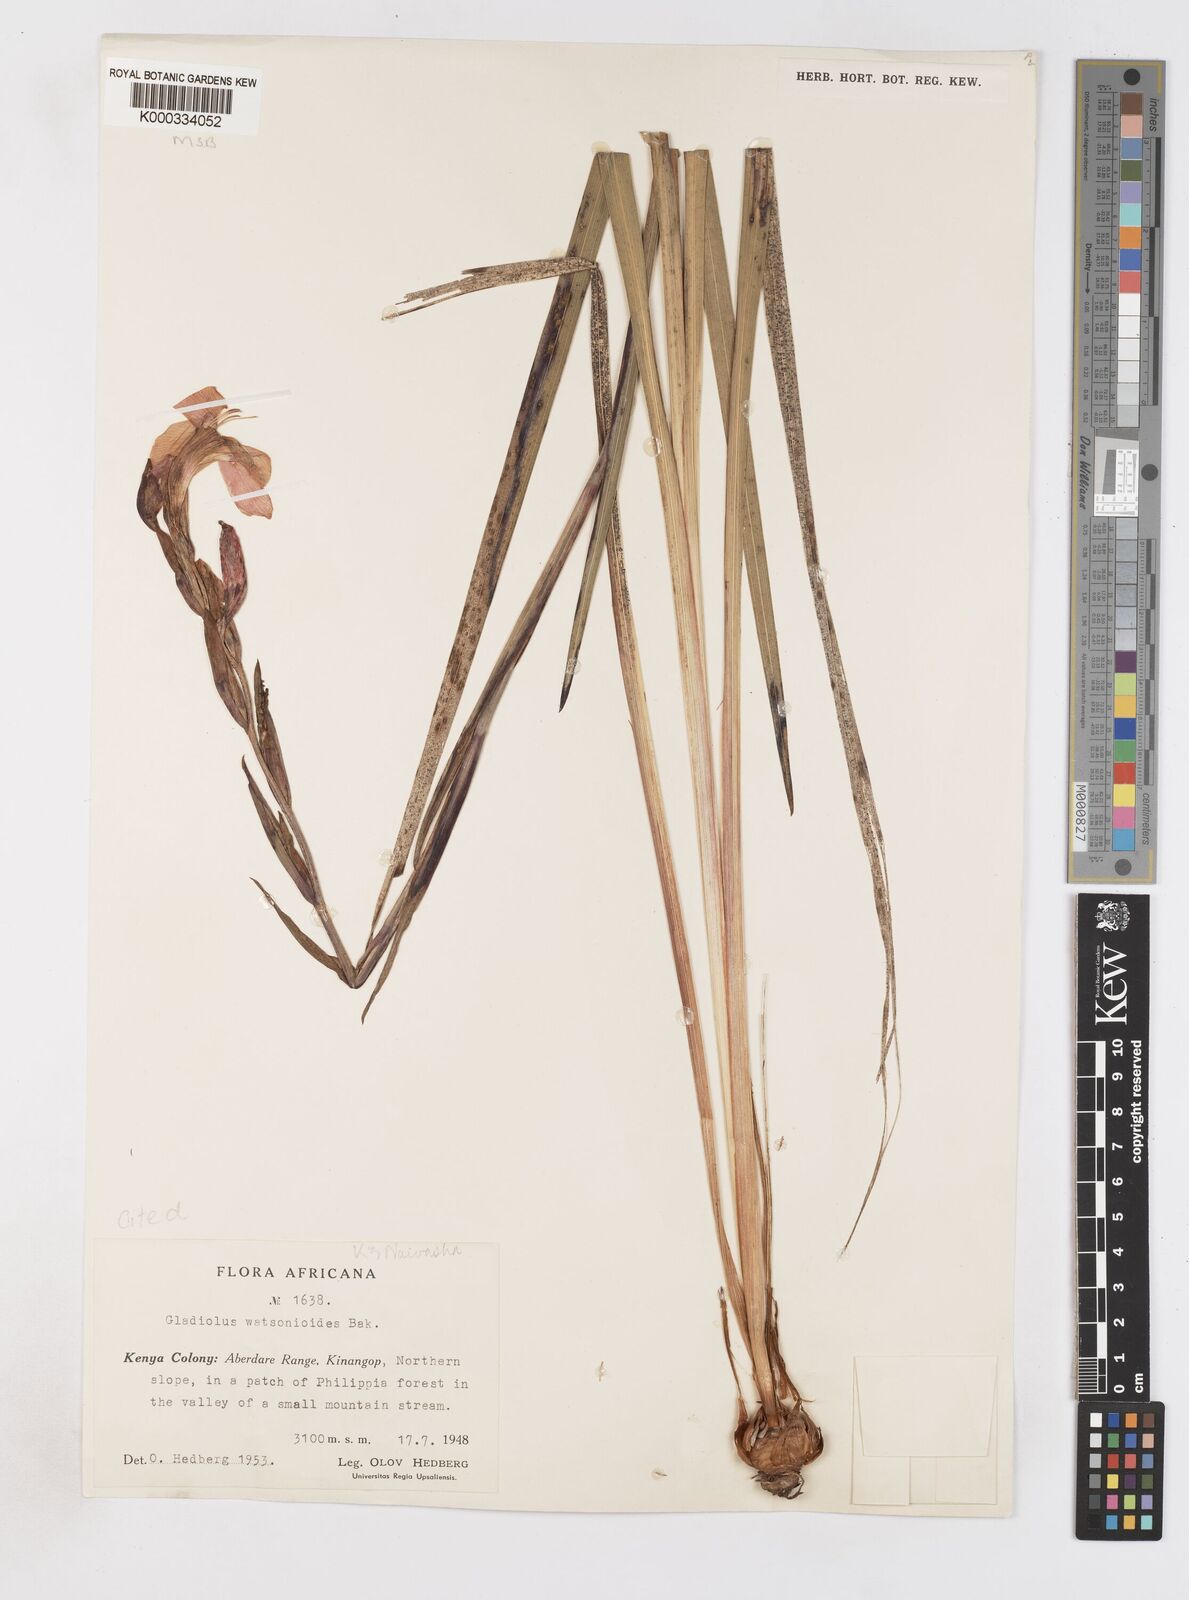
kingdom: Plantae
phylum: Tracheophyta
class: Liliopsida
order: Asparagales
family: Iridaceae
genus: Gladiolus
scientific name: Gladiolus watsonioides
